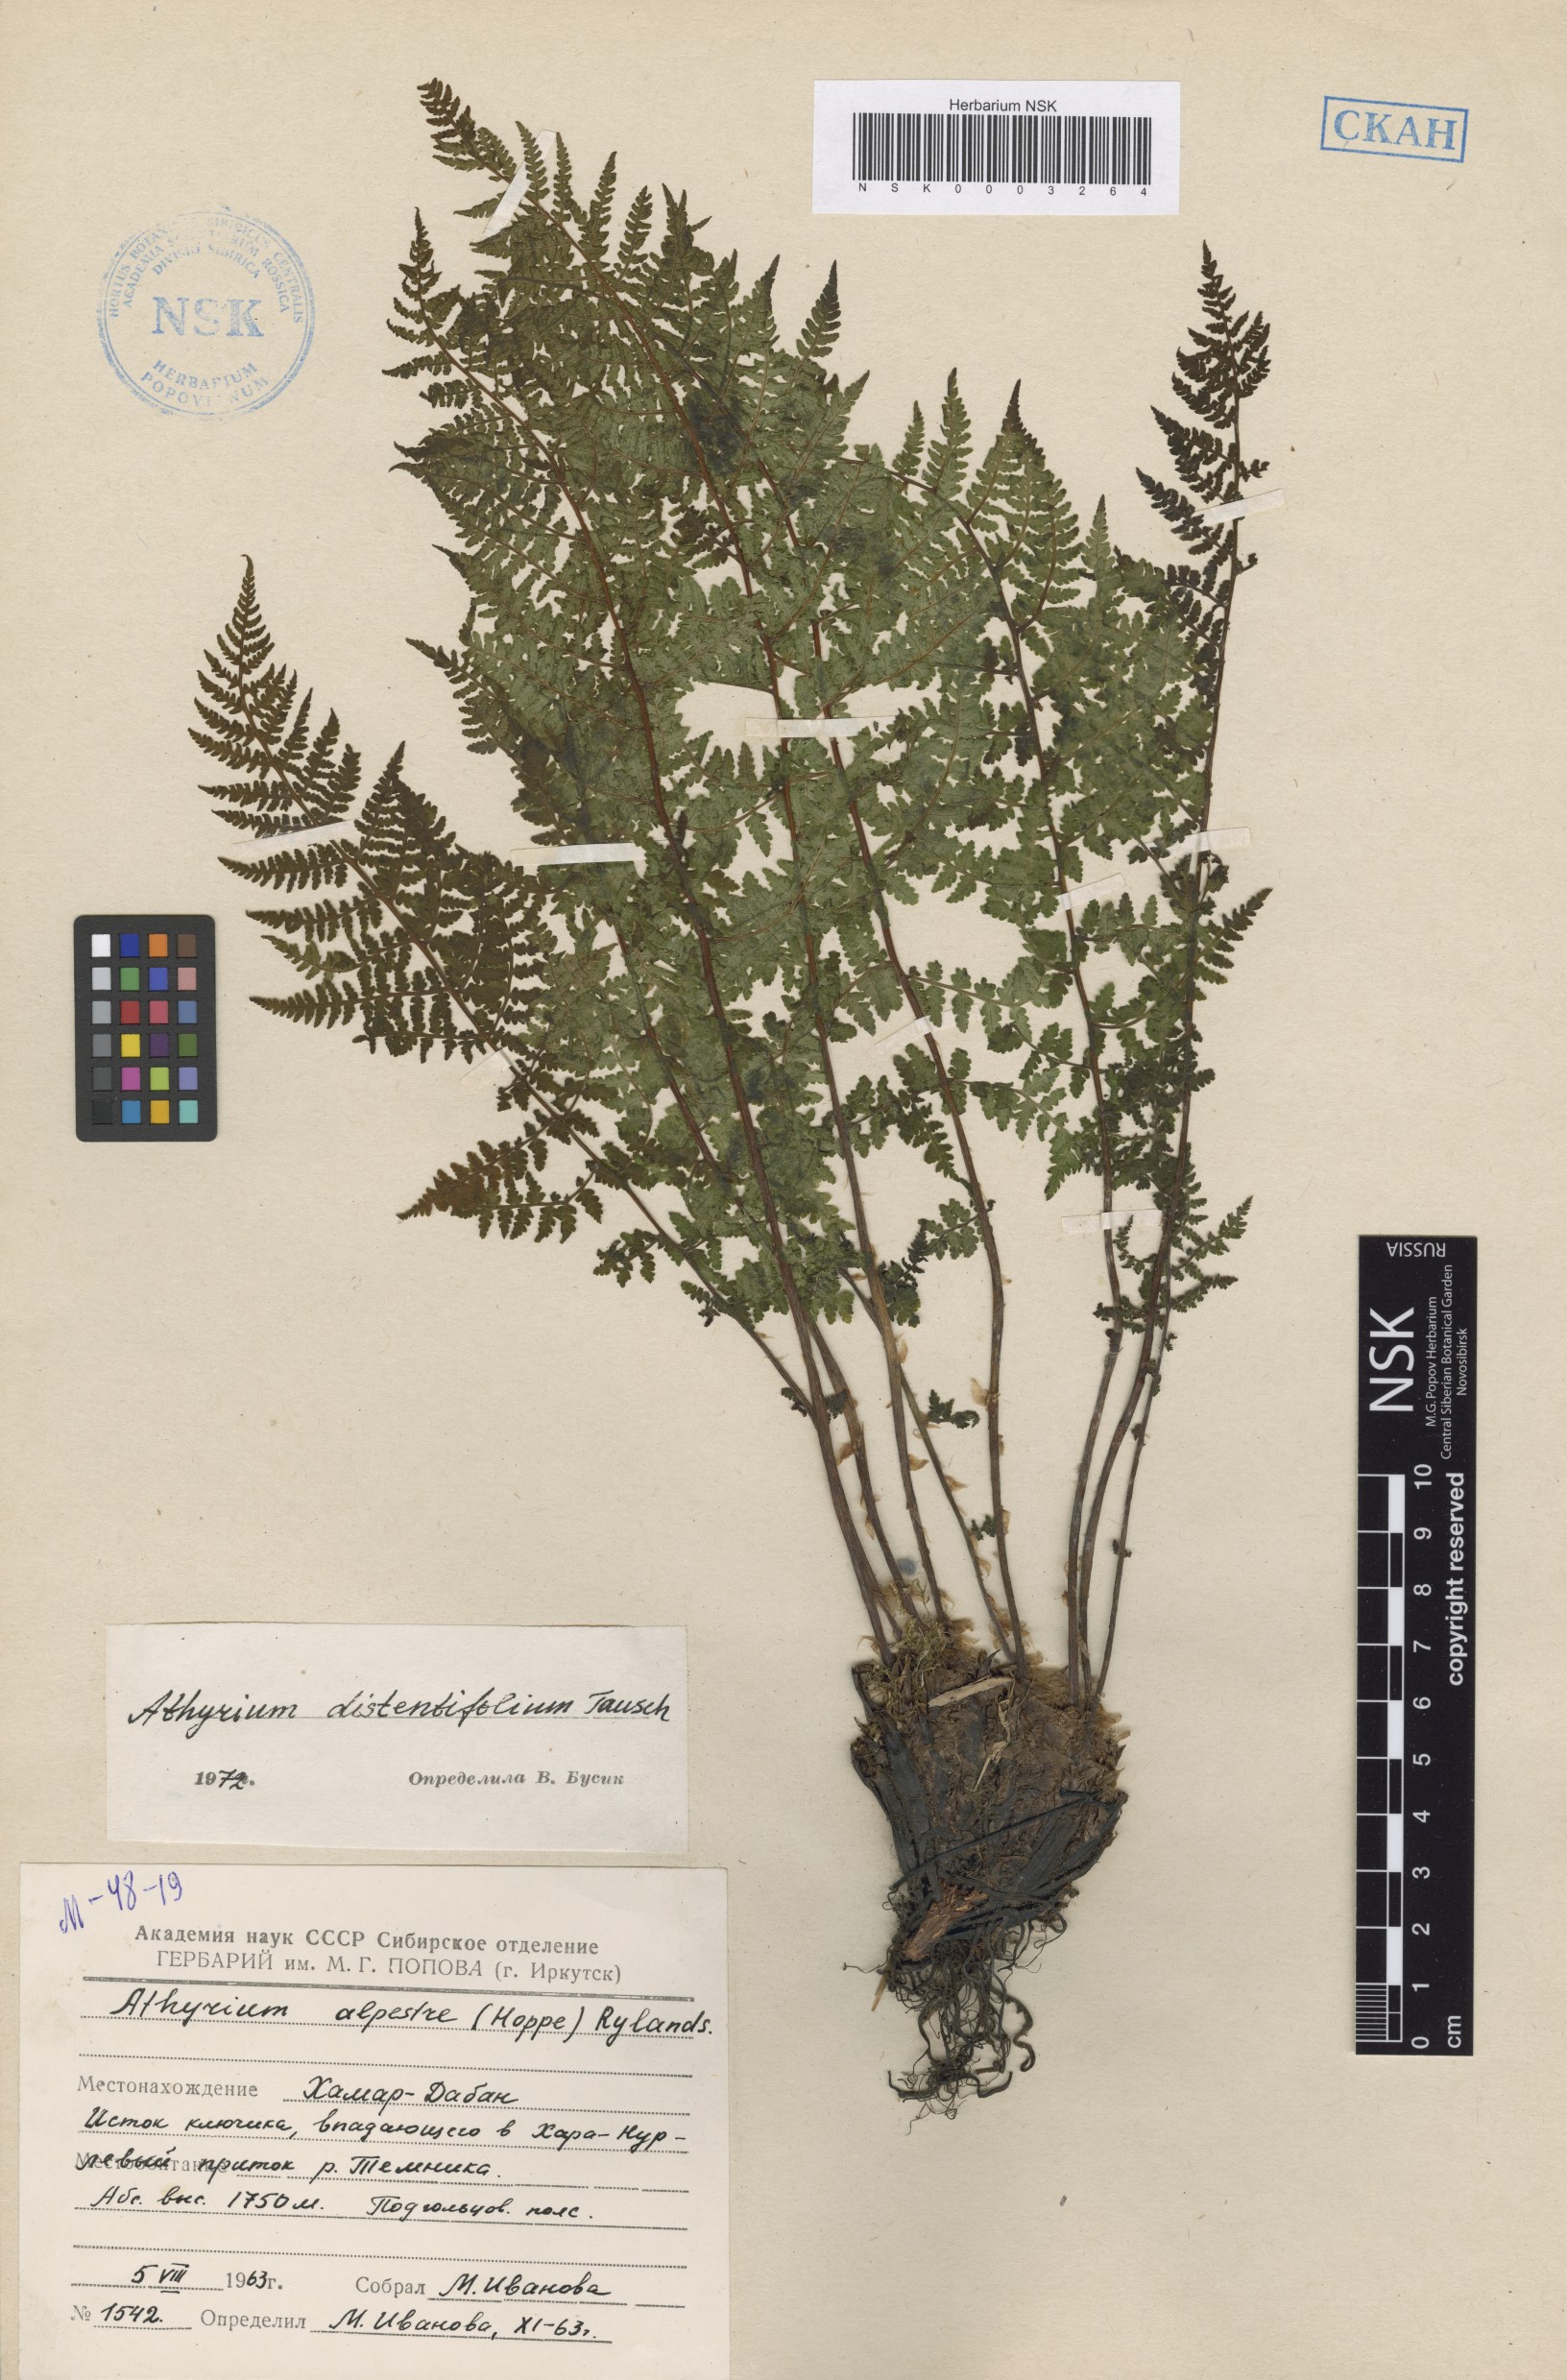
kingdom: Plantae
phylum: Tracheophyta
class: Polypodiopsida
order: Polypodiales
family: Athyriaceae
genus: Pseudathyrium
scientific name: Pseudathyrium alpestre
